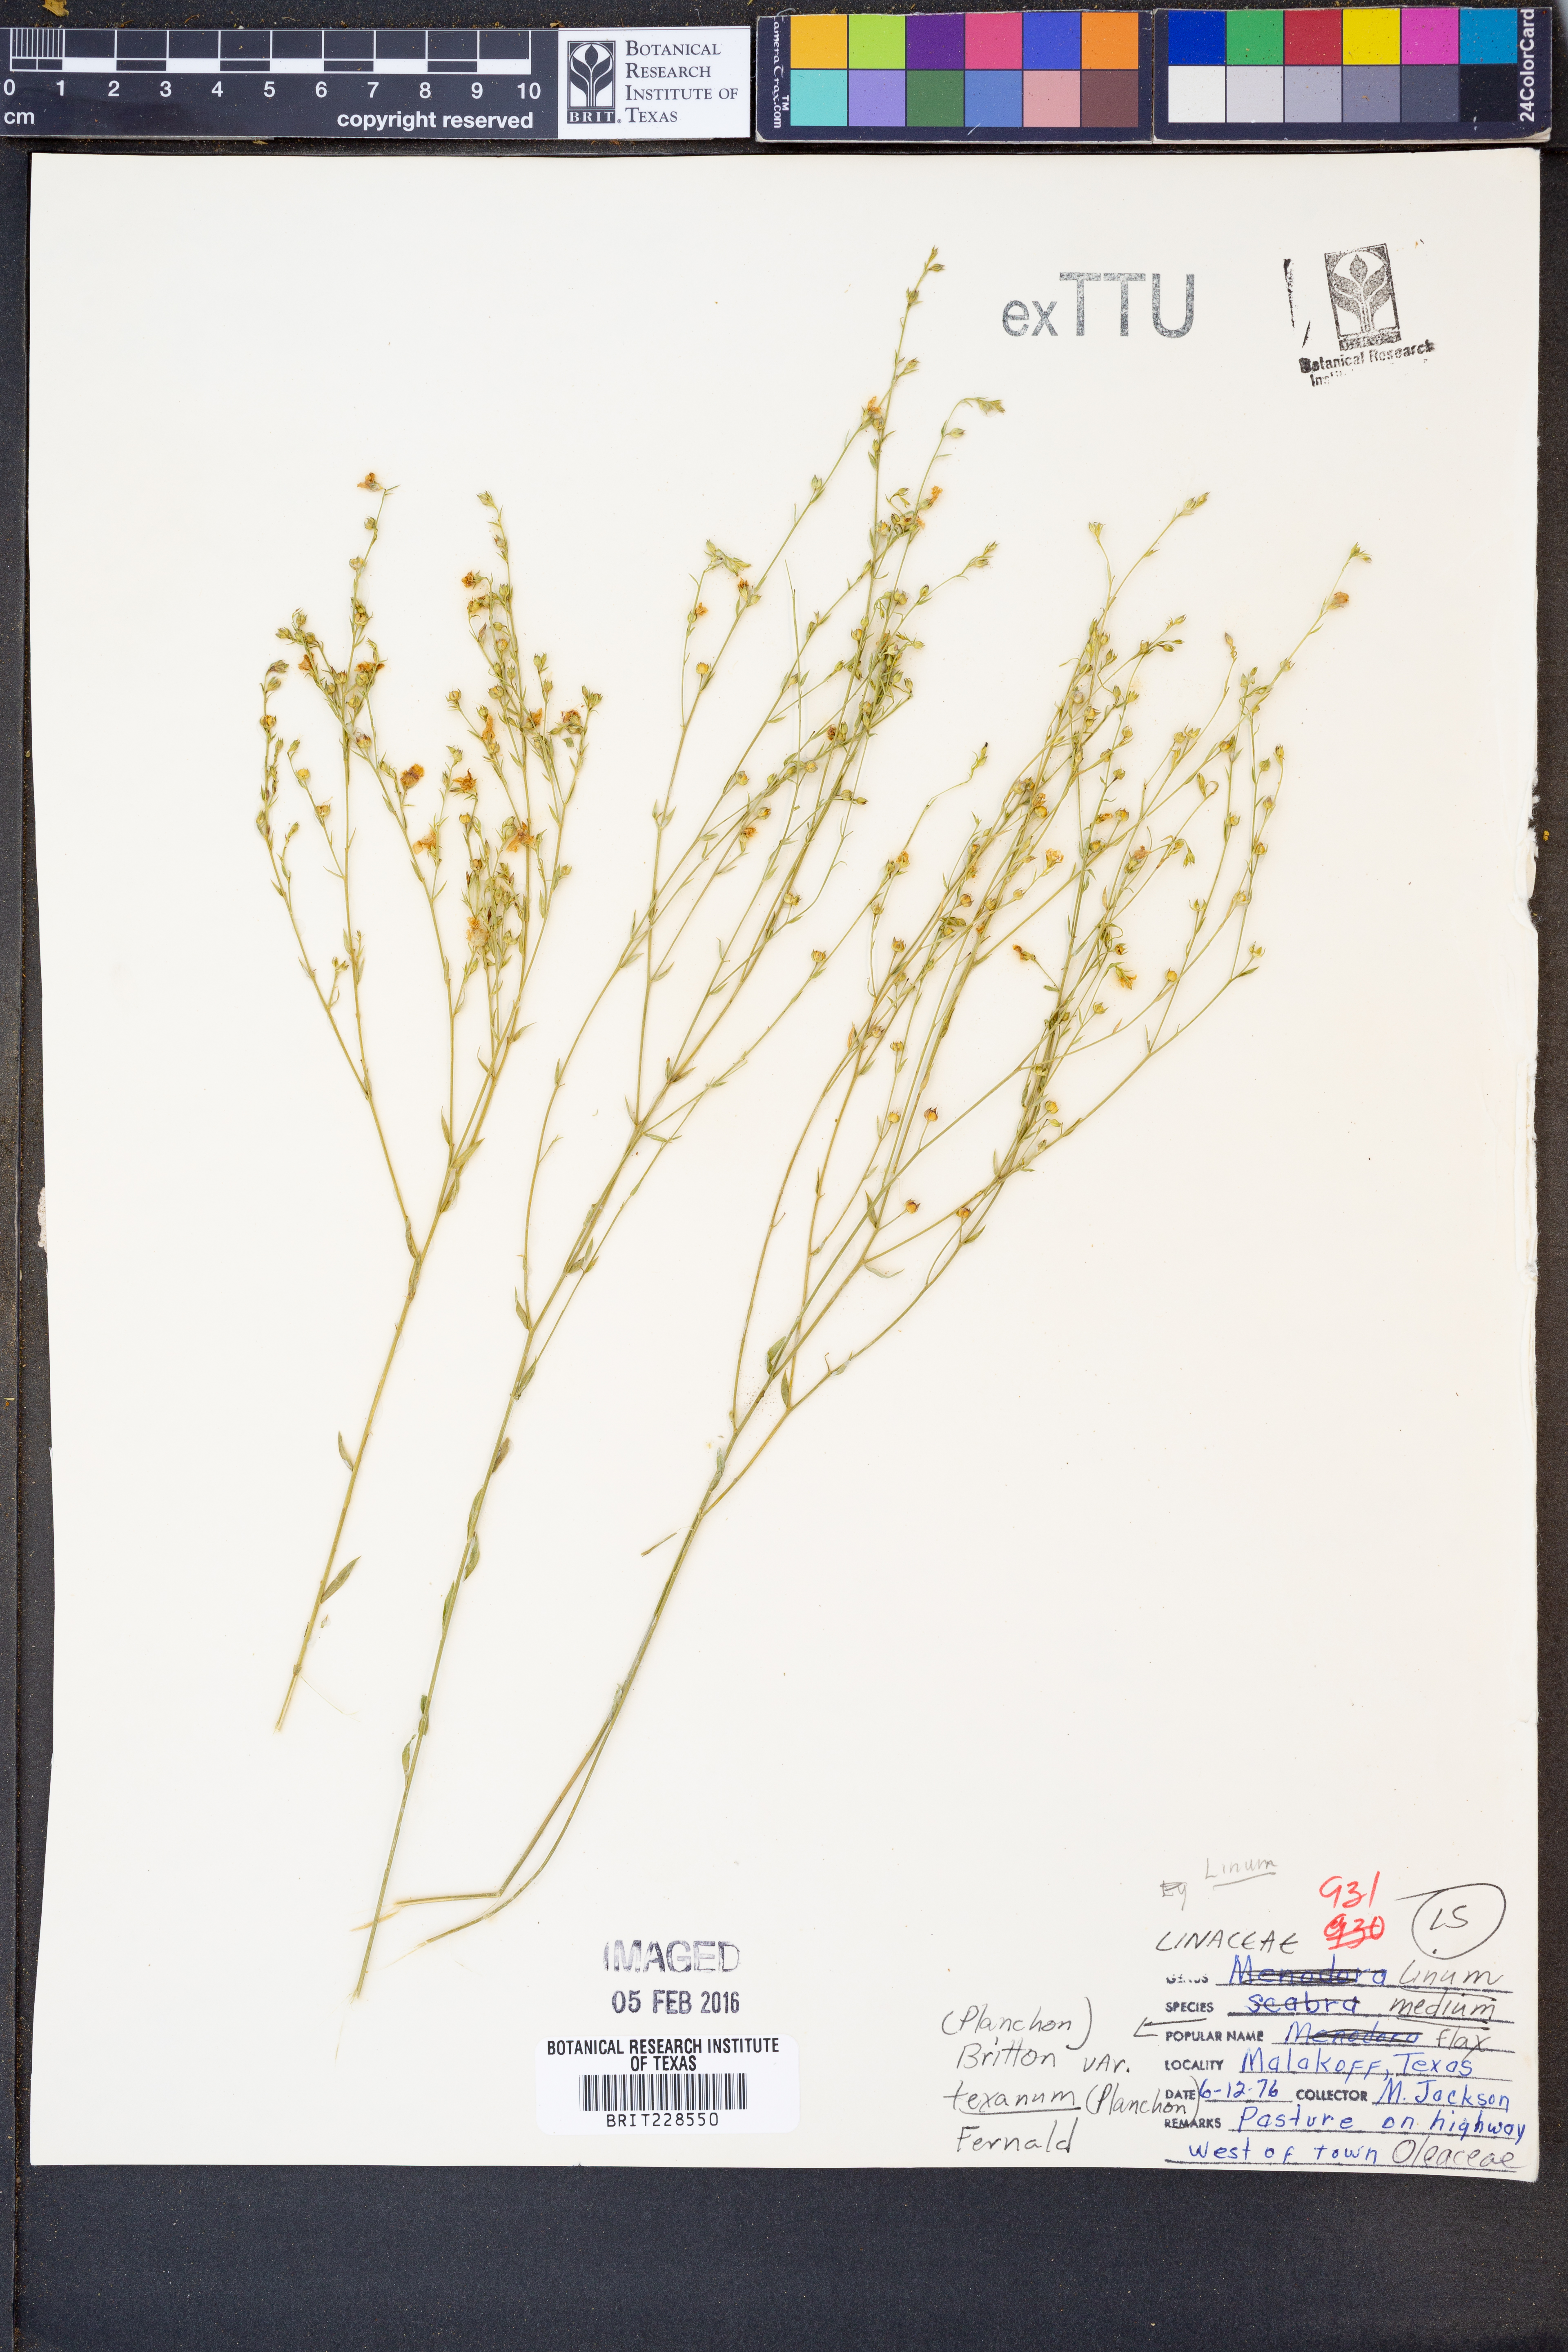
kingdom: Plantae
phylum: Tracheophyta
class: Magnoliopsida
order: Malpighiales
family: Linaceae
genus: Linum
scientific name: Linum medium
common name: Stiff yellow flax
